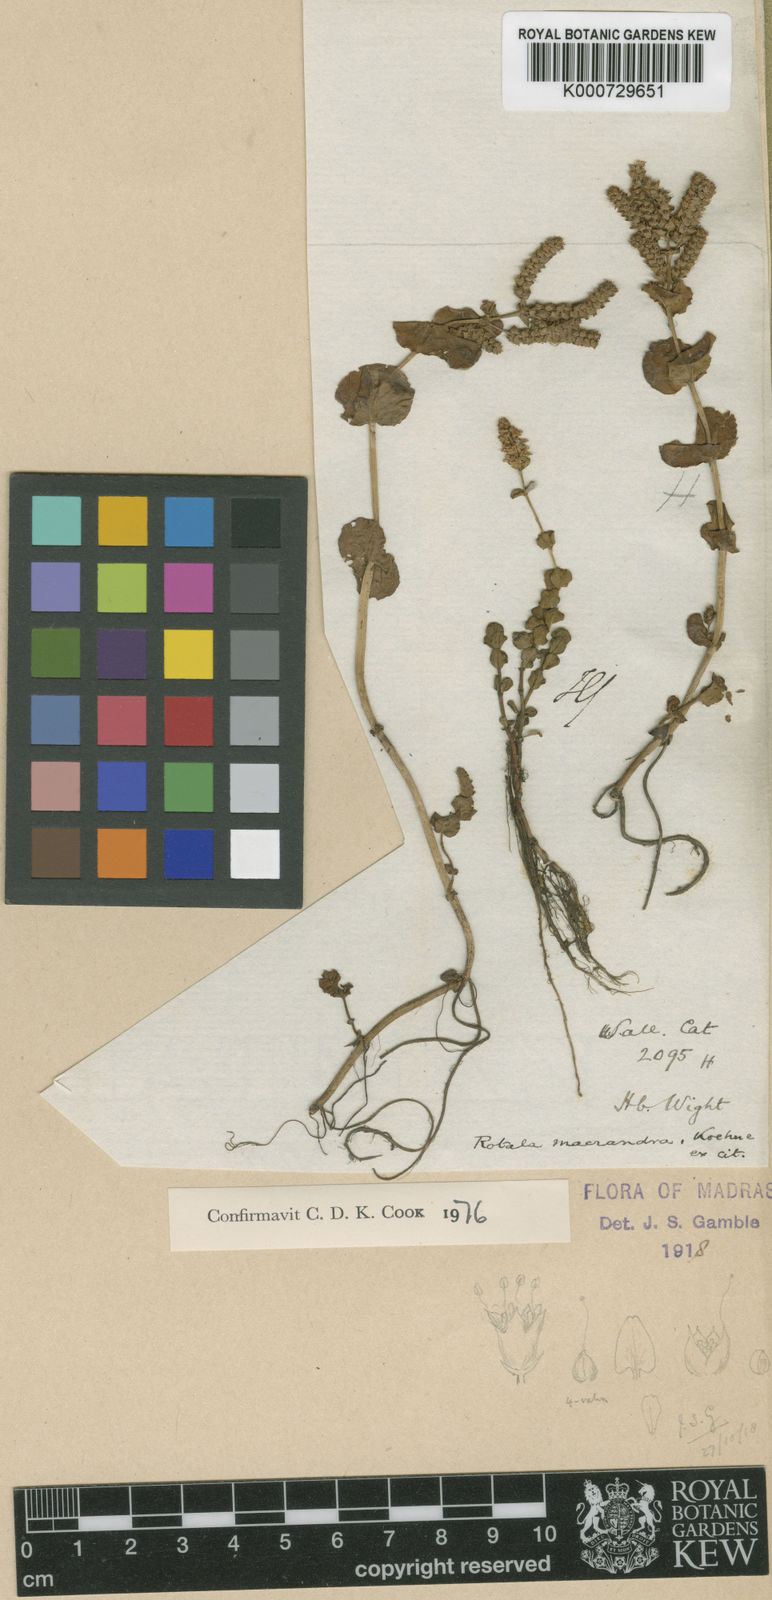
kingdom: Plantae
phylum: Tracheophyta
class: Magnoliopsida
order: Myrtales
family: Lythraceae
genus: Rotala
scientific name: Rotala macrandra
